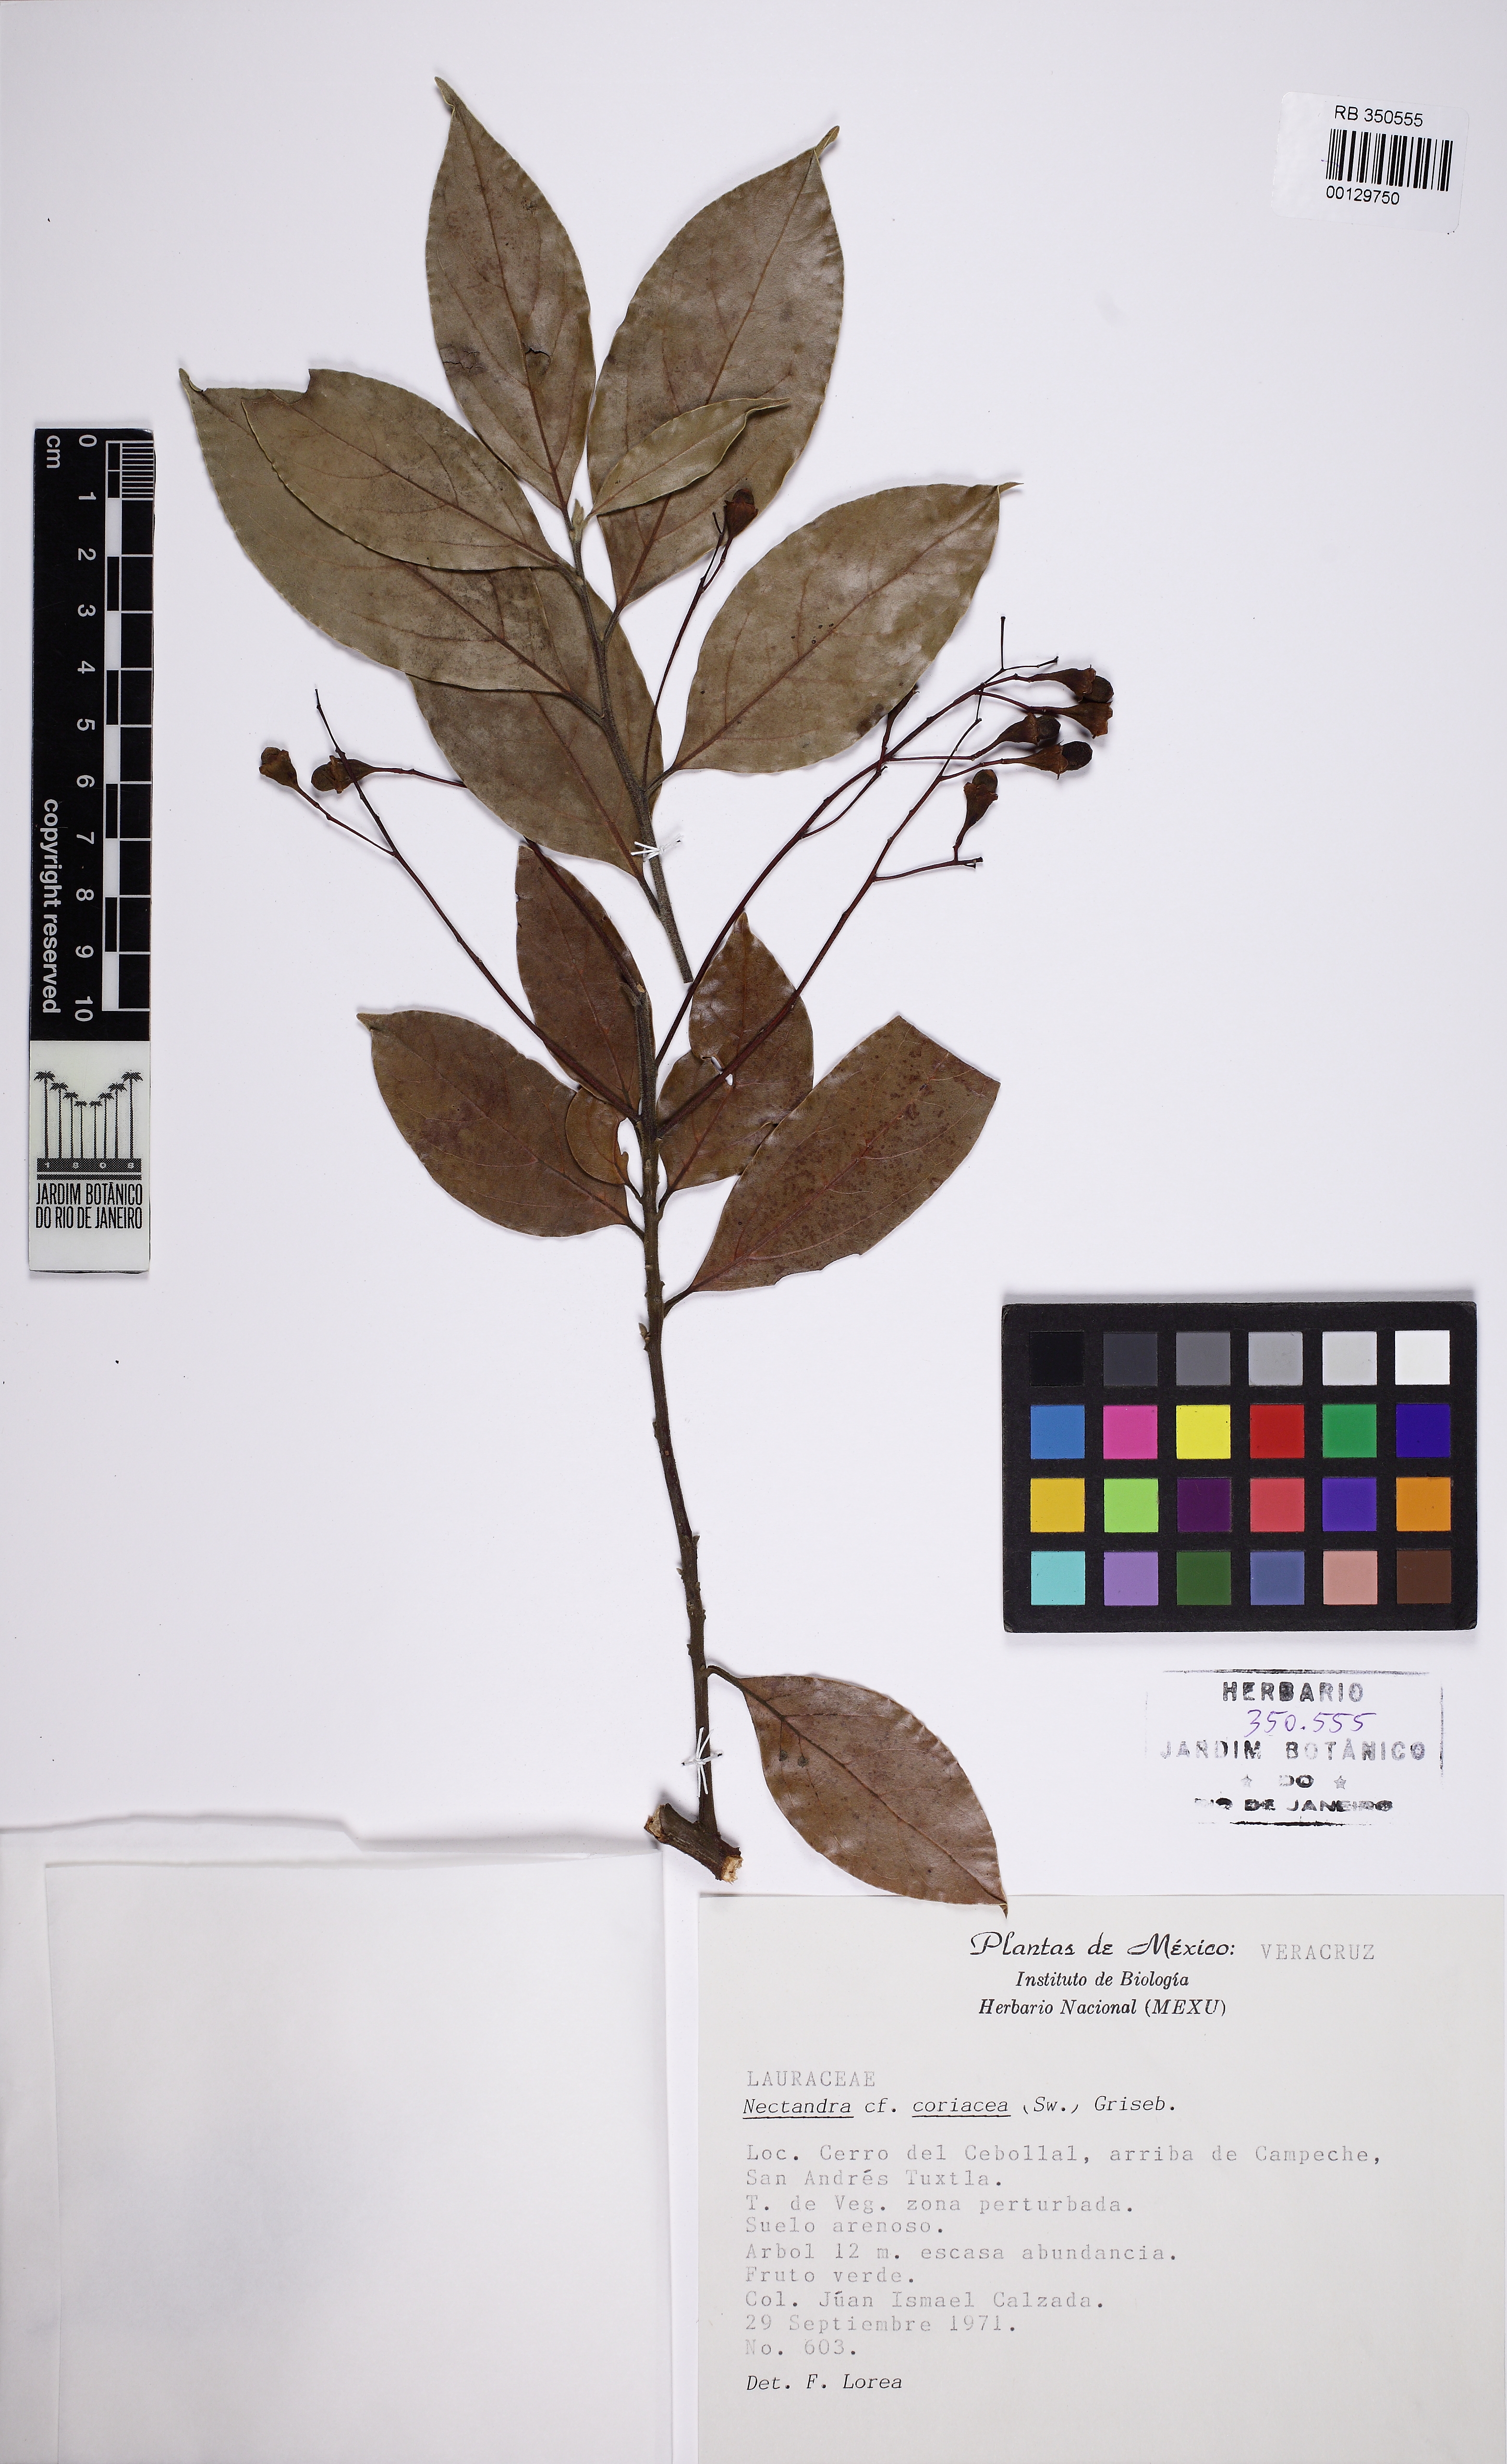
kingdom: Plantae
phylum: Tracheophyta
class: Magnoliopsida
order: Laurales
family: Lauraceae
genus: Damburneya
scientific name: Damburneya coriacea
